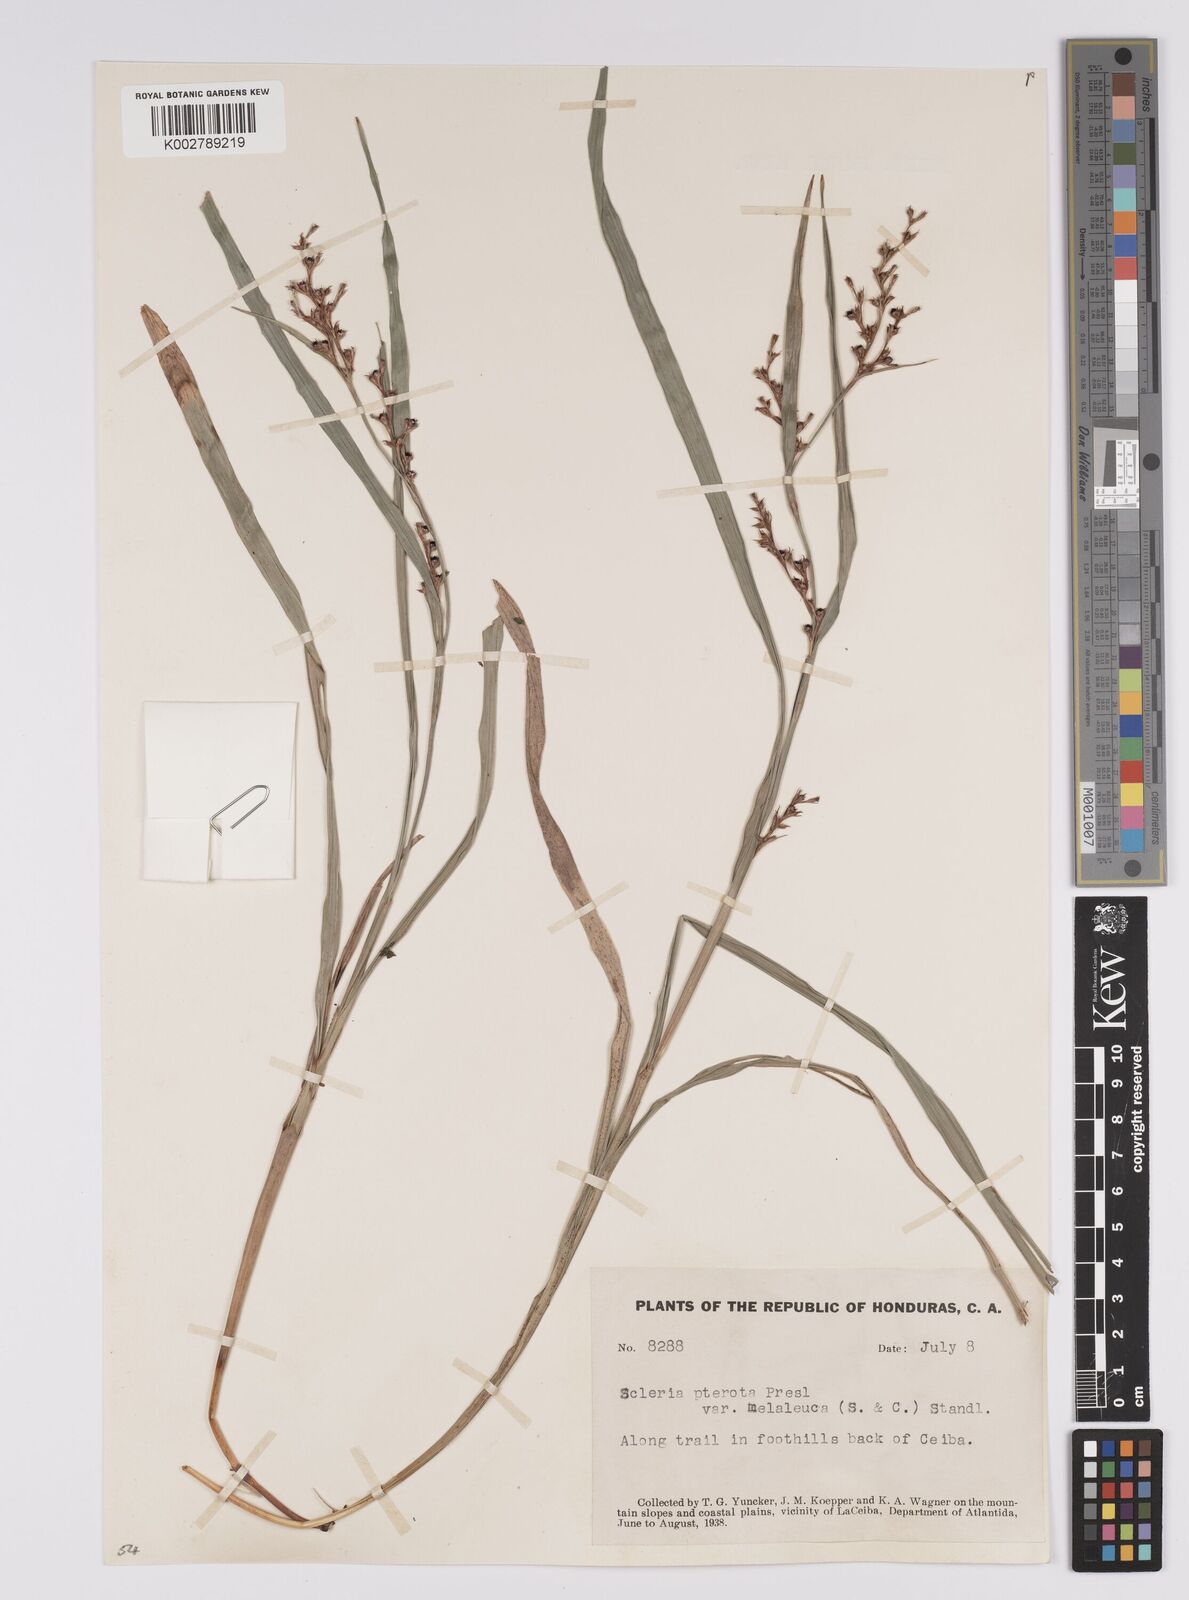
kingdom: Plantae
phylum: Tracheophyta
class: Liliopsida
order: Poales
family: Cyperaceae
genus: Scleria
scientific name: Scleria gaertneri
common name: Cortadera blanca
